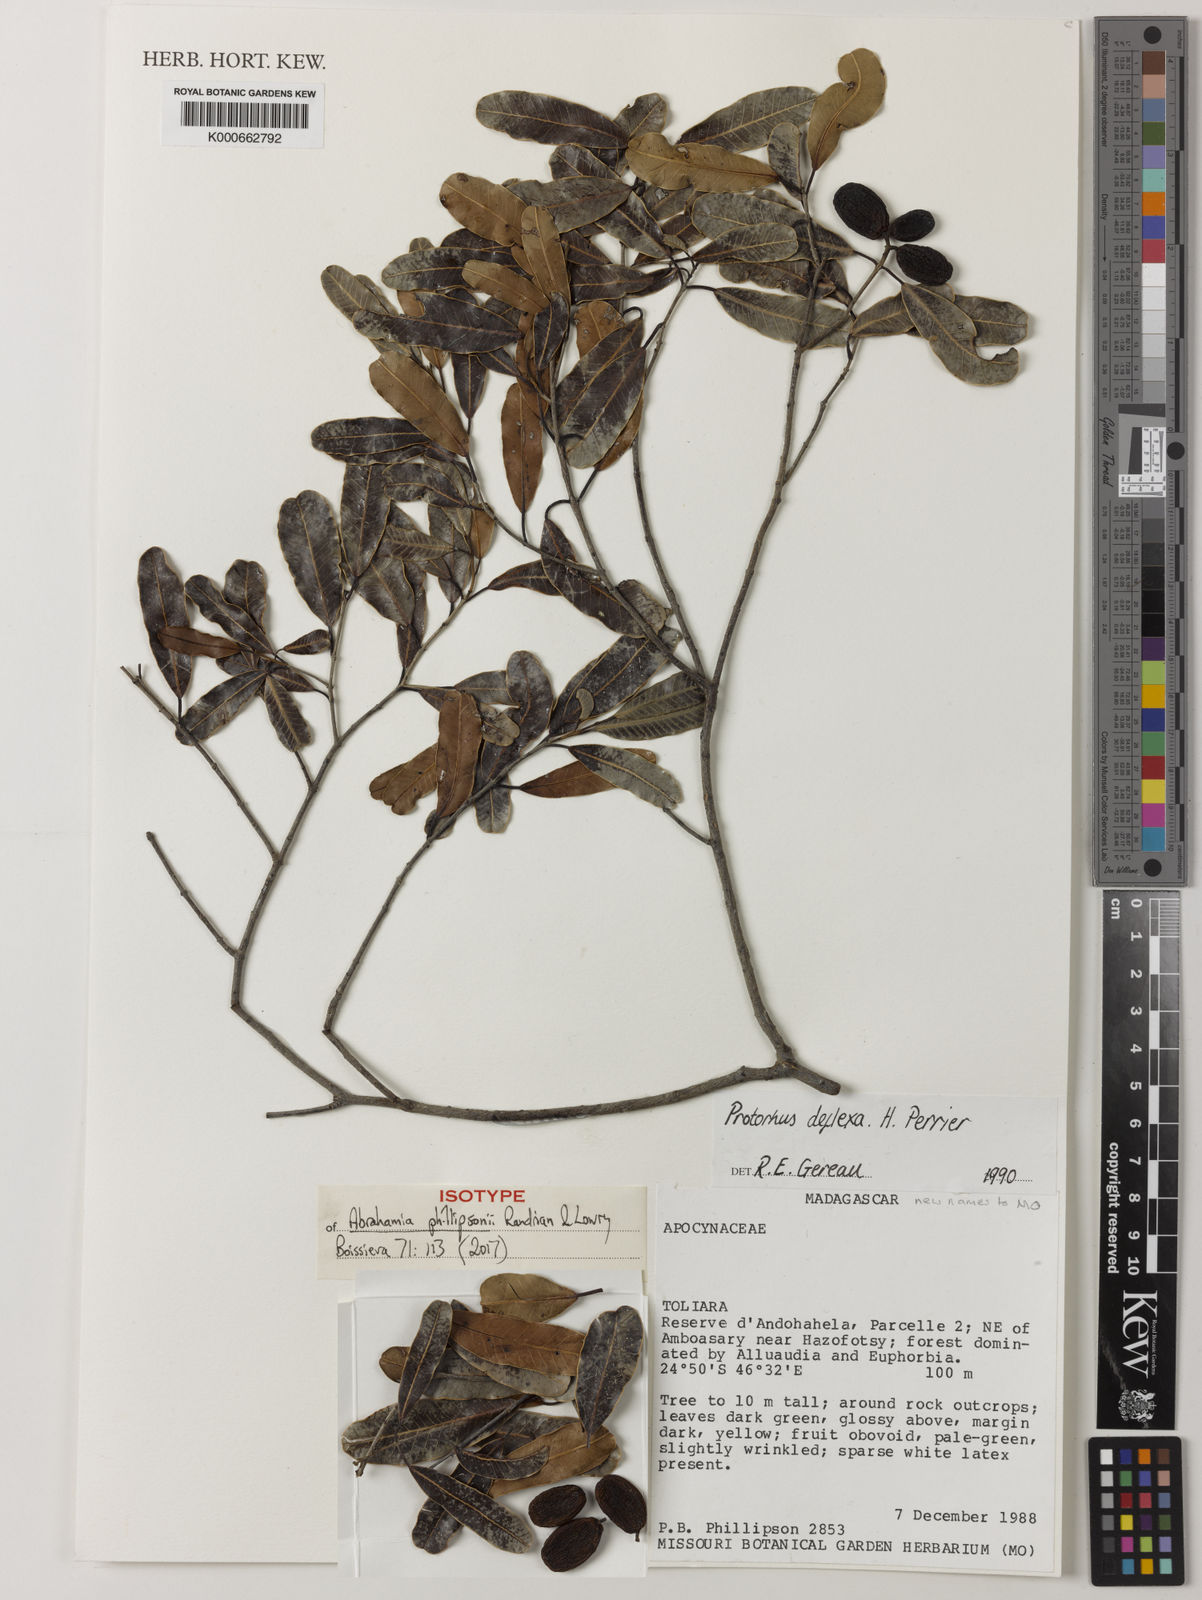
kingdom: Plantae
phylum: Tracheophyta
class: Magnoliopsida
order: Sapindales
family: Anacardiaceae
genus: Abrahamia
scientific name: Abrahamia phillipsonii
